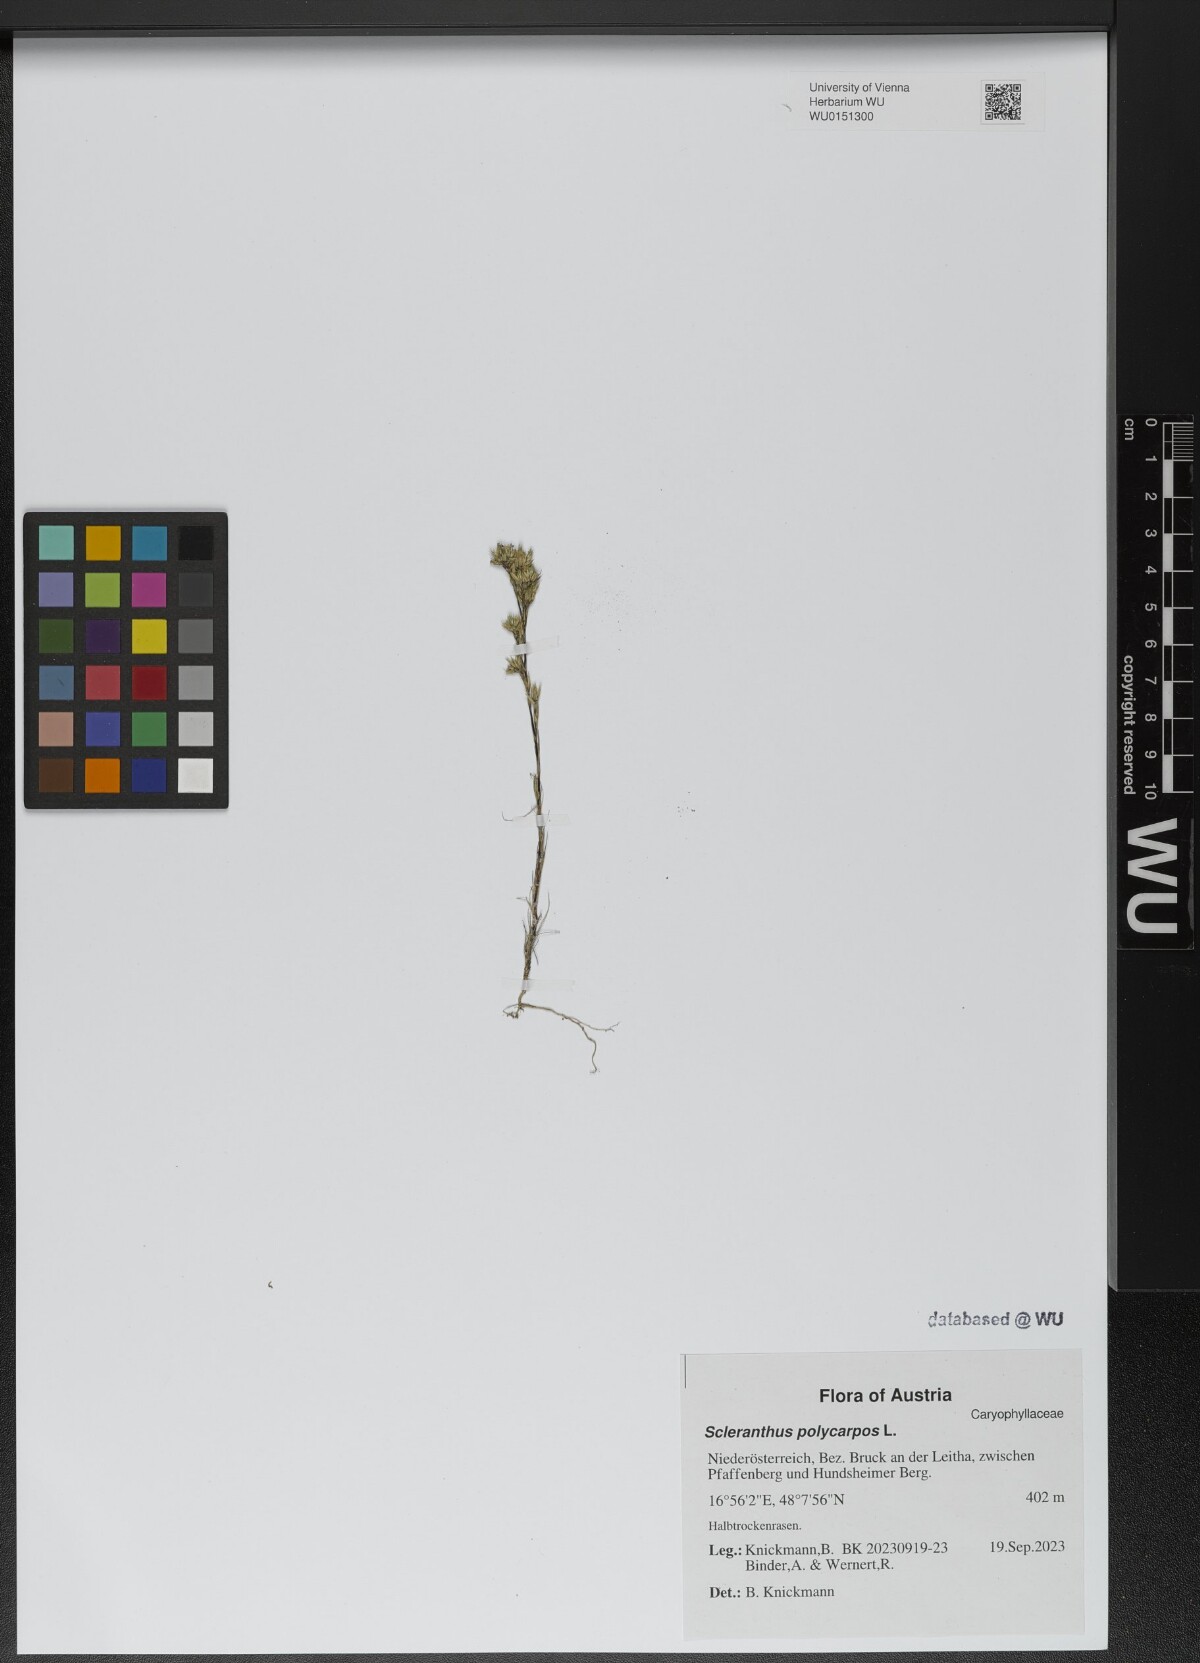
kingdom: Plantae
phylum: Tracheophyta
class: Magnoliopsida
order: Caryophyllales
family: Caryophyllaceae
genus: Scleranthus
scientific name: Scleranthus annuus
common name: Annual knawel
